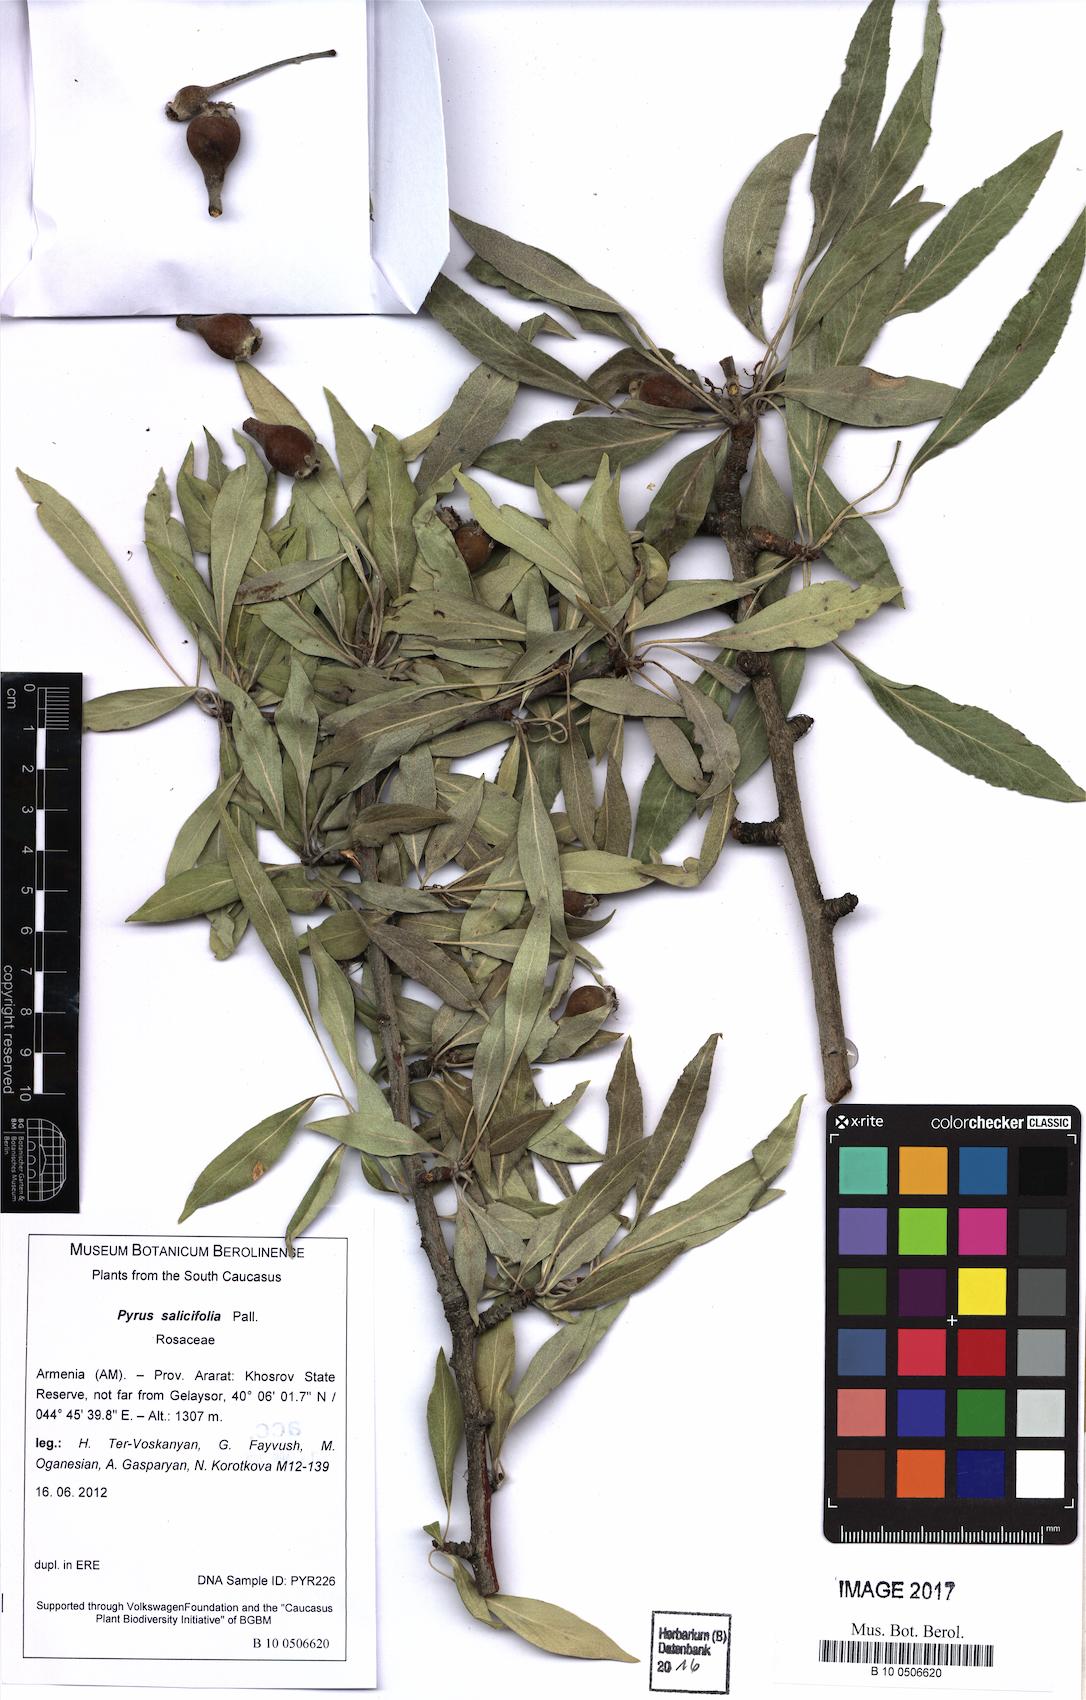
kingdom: Plantae
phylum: Tracheophyta
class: Magnoliopsida
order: Rosales
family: Rosaceae
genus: Pyrus
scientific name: Pyrus salicifolia
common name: Willow-leaved pear
